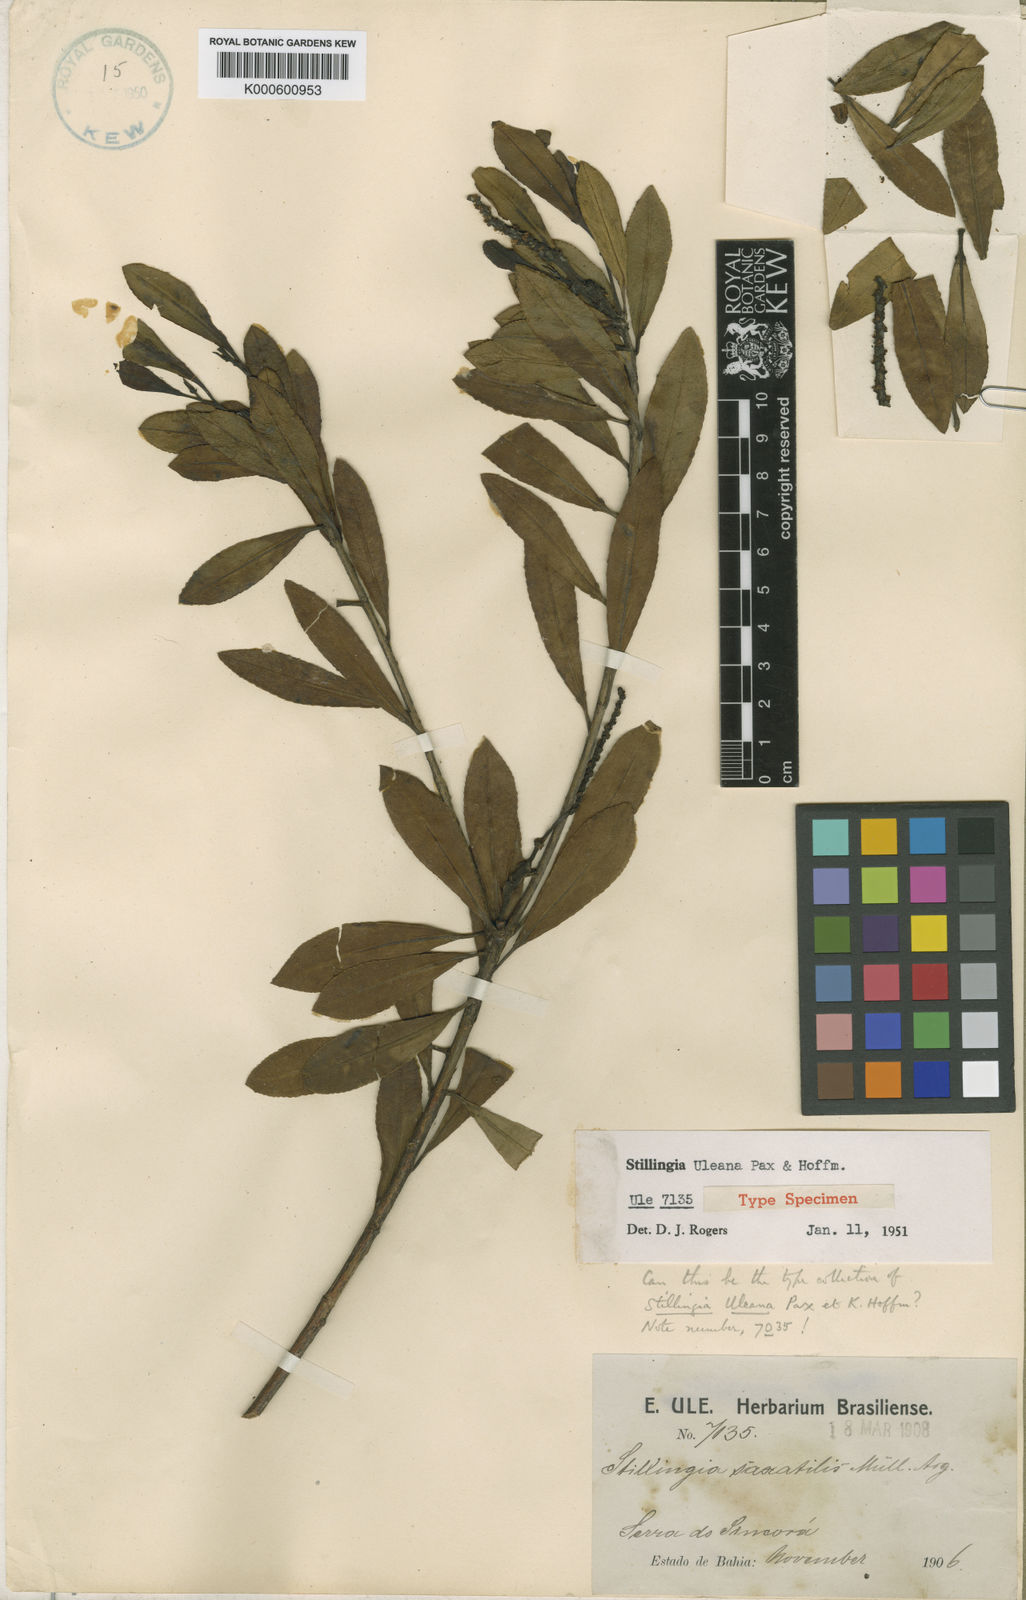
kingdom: Plantae
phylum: Tracheophyta
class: Magnoliopsida
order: Malpighiales
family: Euphorbiaceae
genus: Stillingia
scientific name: Stillingia uleana
